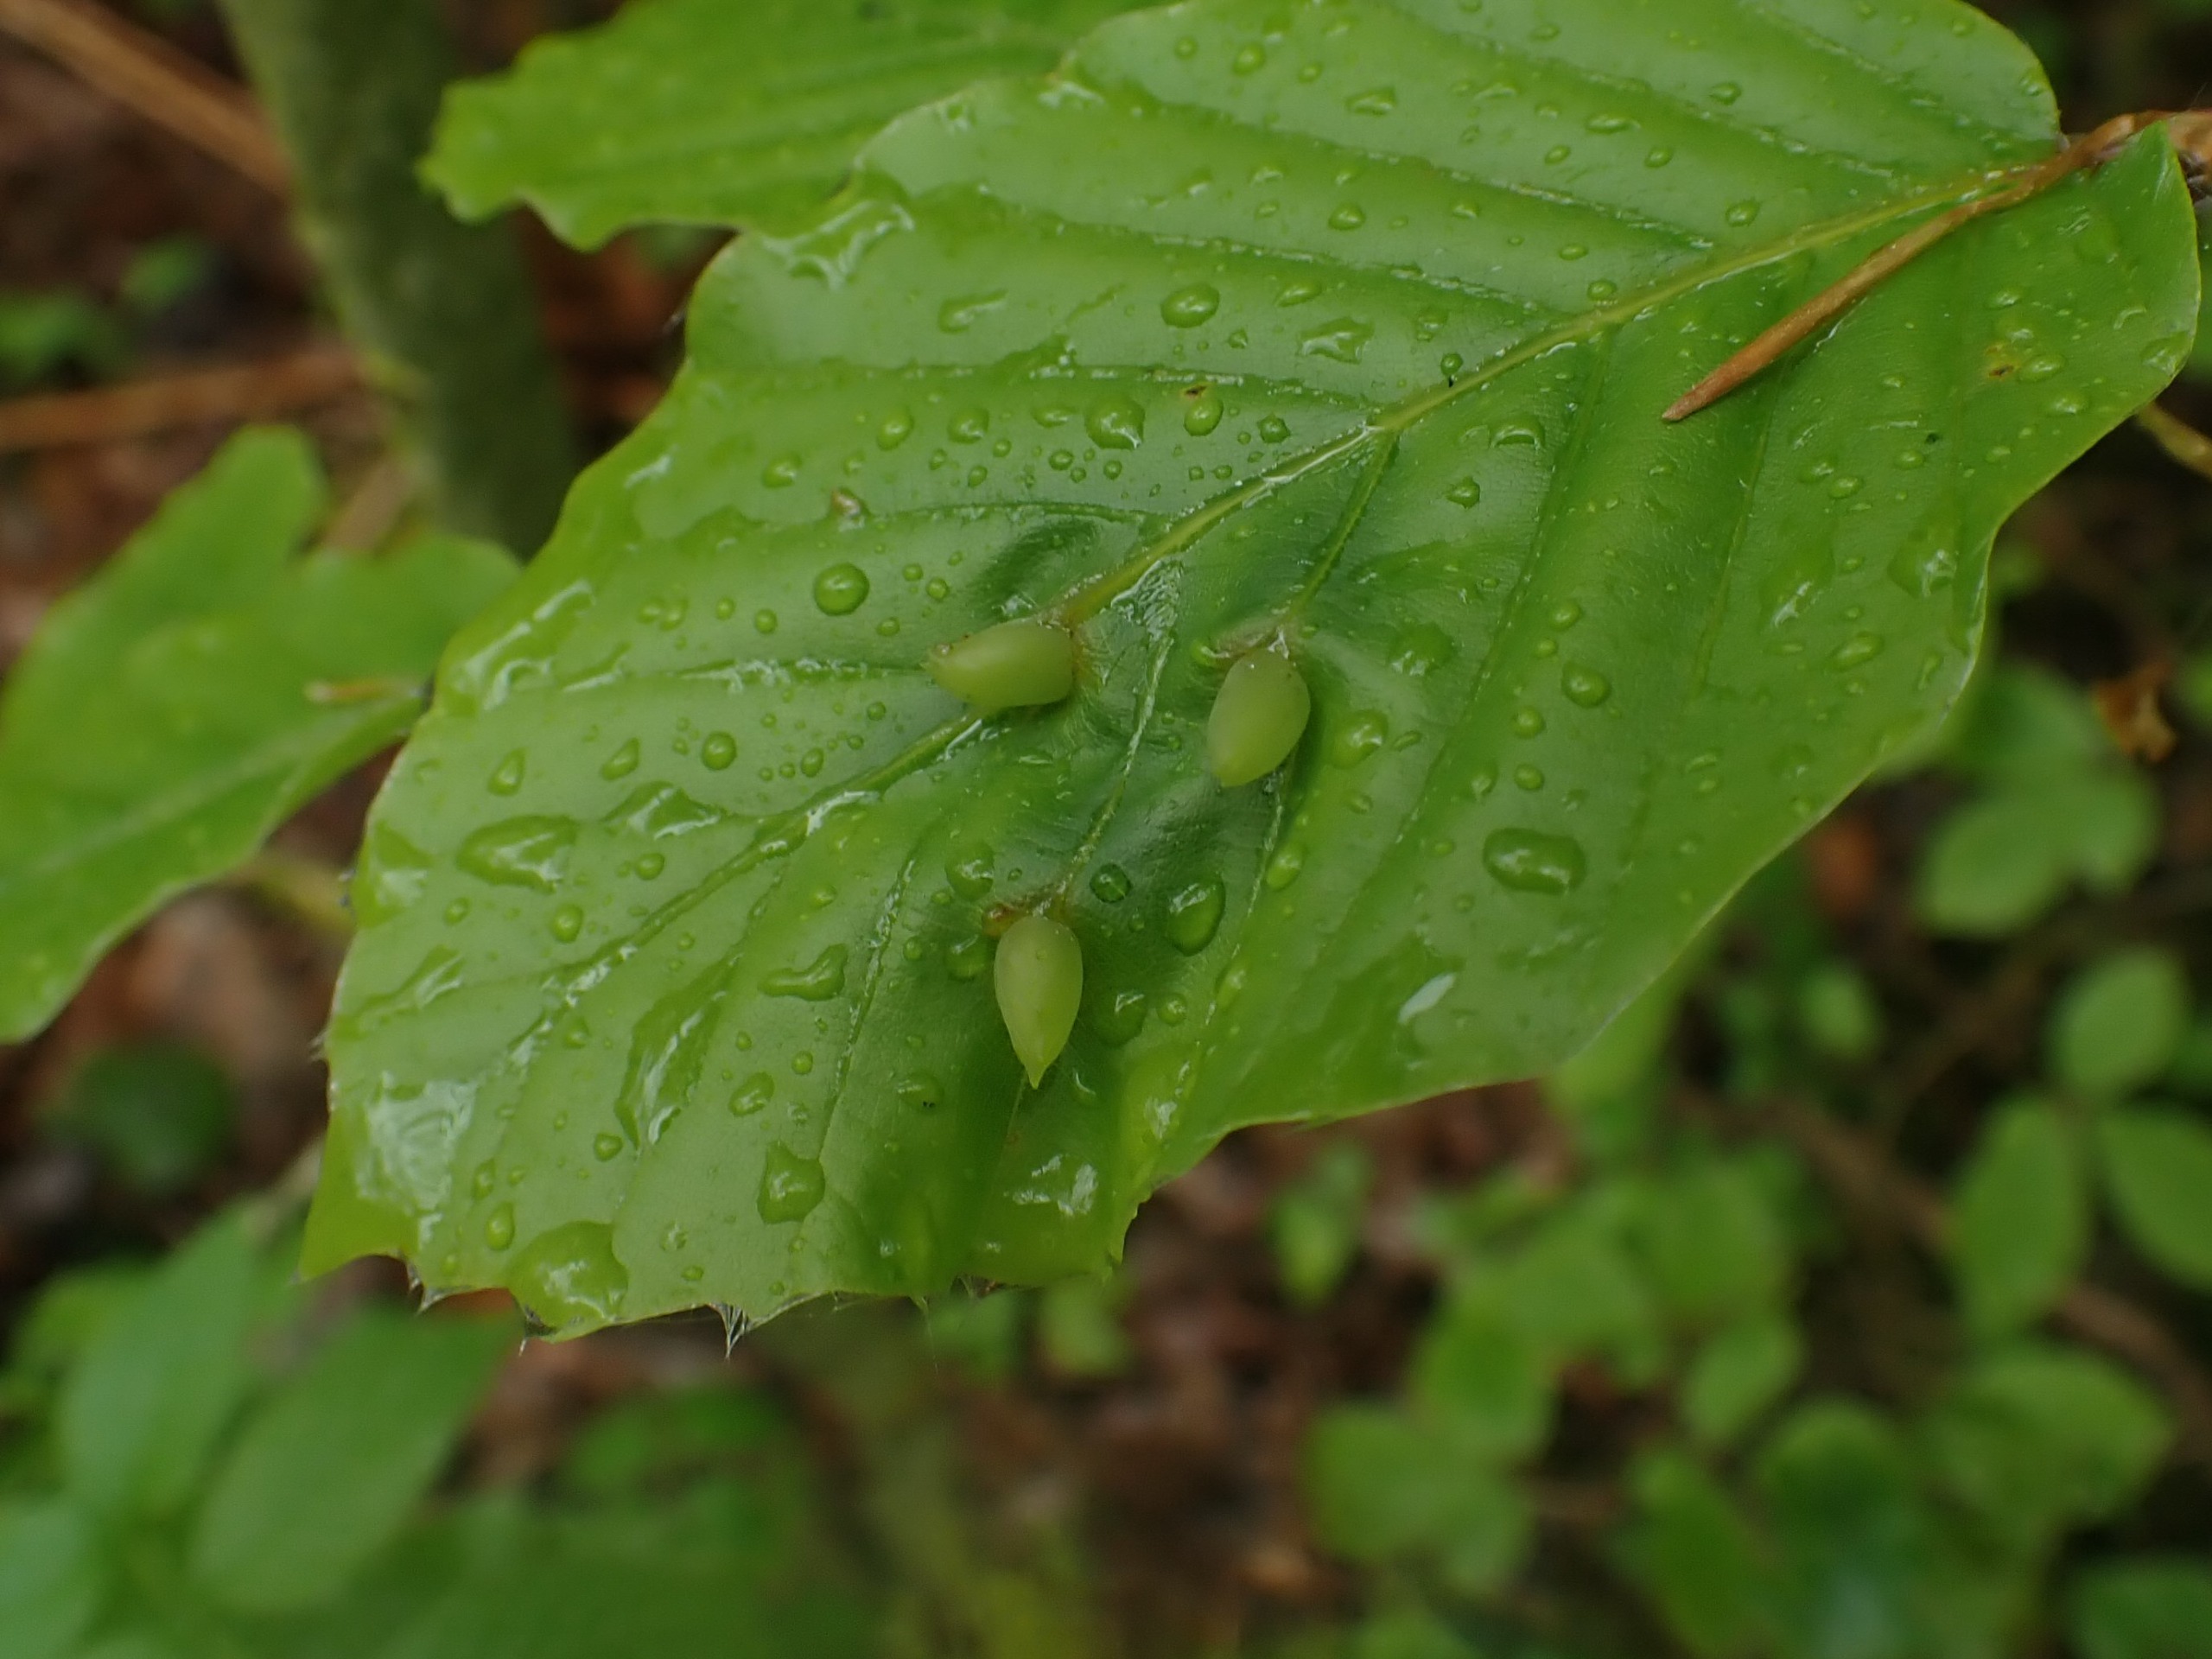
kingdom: Animalia
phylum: Arthropoda
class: Insecta
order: Diptera
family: Cecidomyiidae
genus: Mikiola
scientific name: Mikiola fagi
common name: Bøgegalmyg
